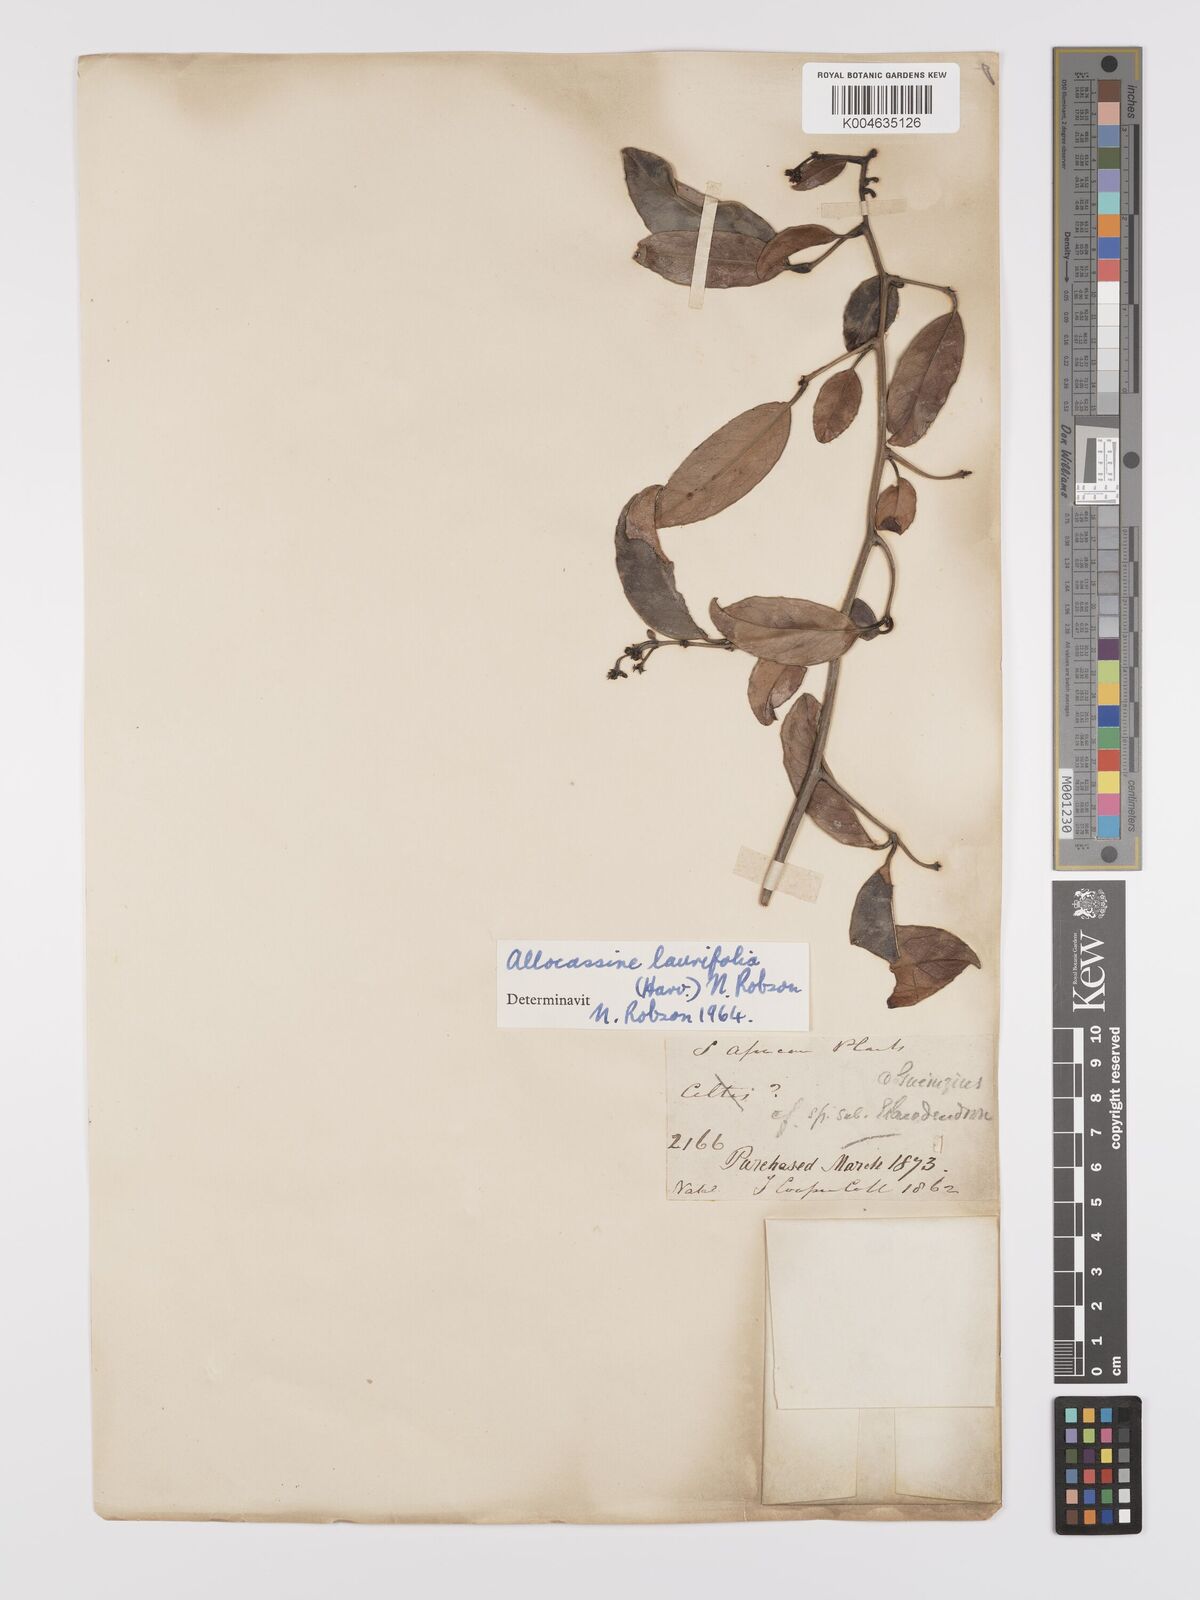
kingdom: Plantae
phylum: Tracheophyta
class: Magnoliopsida
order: Celastrales
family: Celastraceae
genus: Allocassine
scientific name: Allocassine
